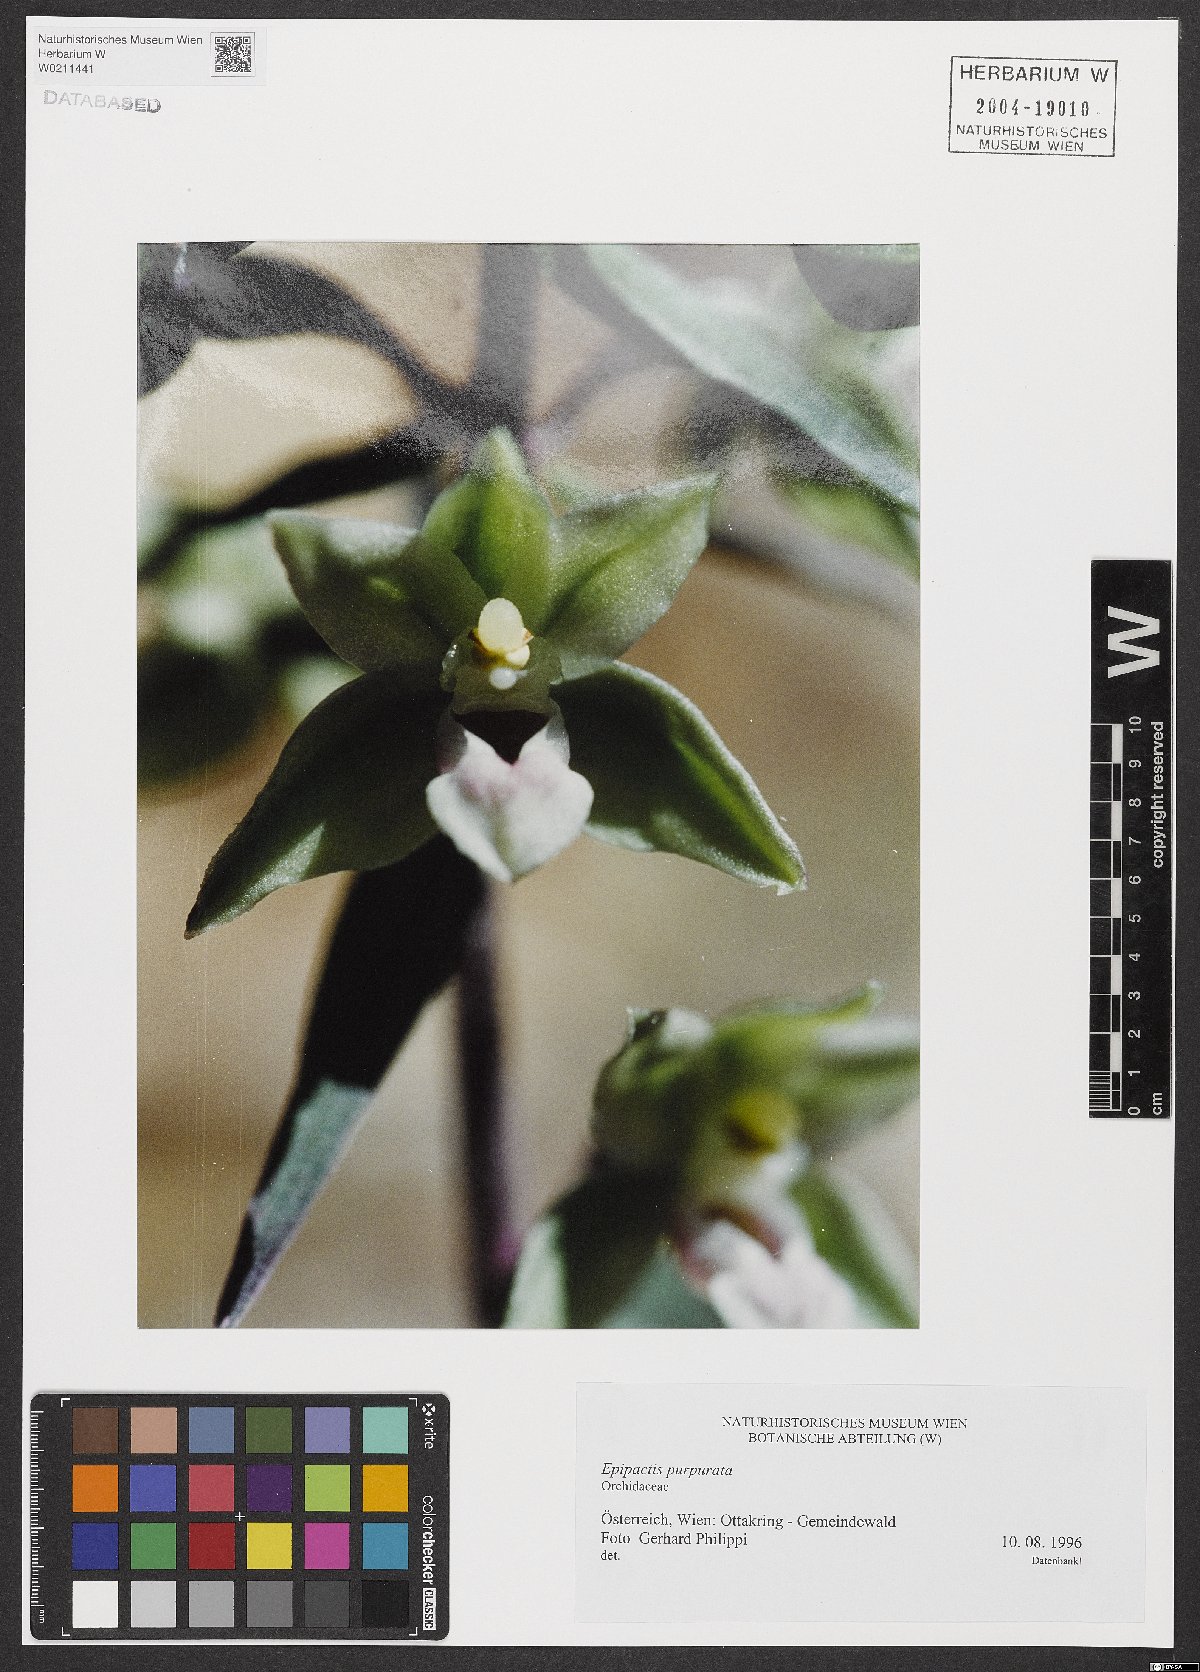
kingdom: Plantae
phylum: Tracheophyta
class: Liliopsida
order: Asparagales
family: Orchidaceae
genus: Epipactis
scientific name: Epipactis purpurata
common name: Violet helleborine
